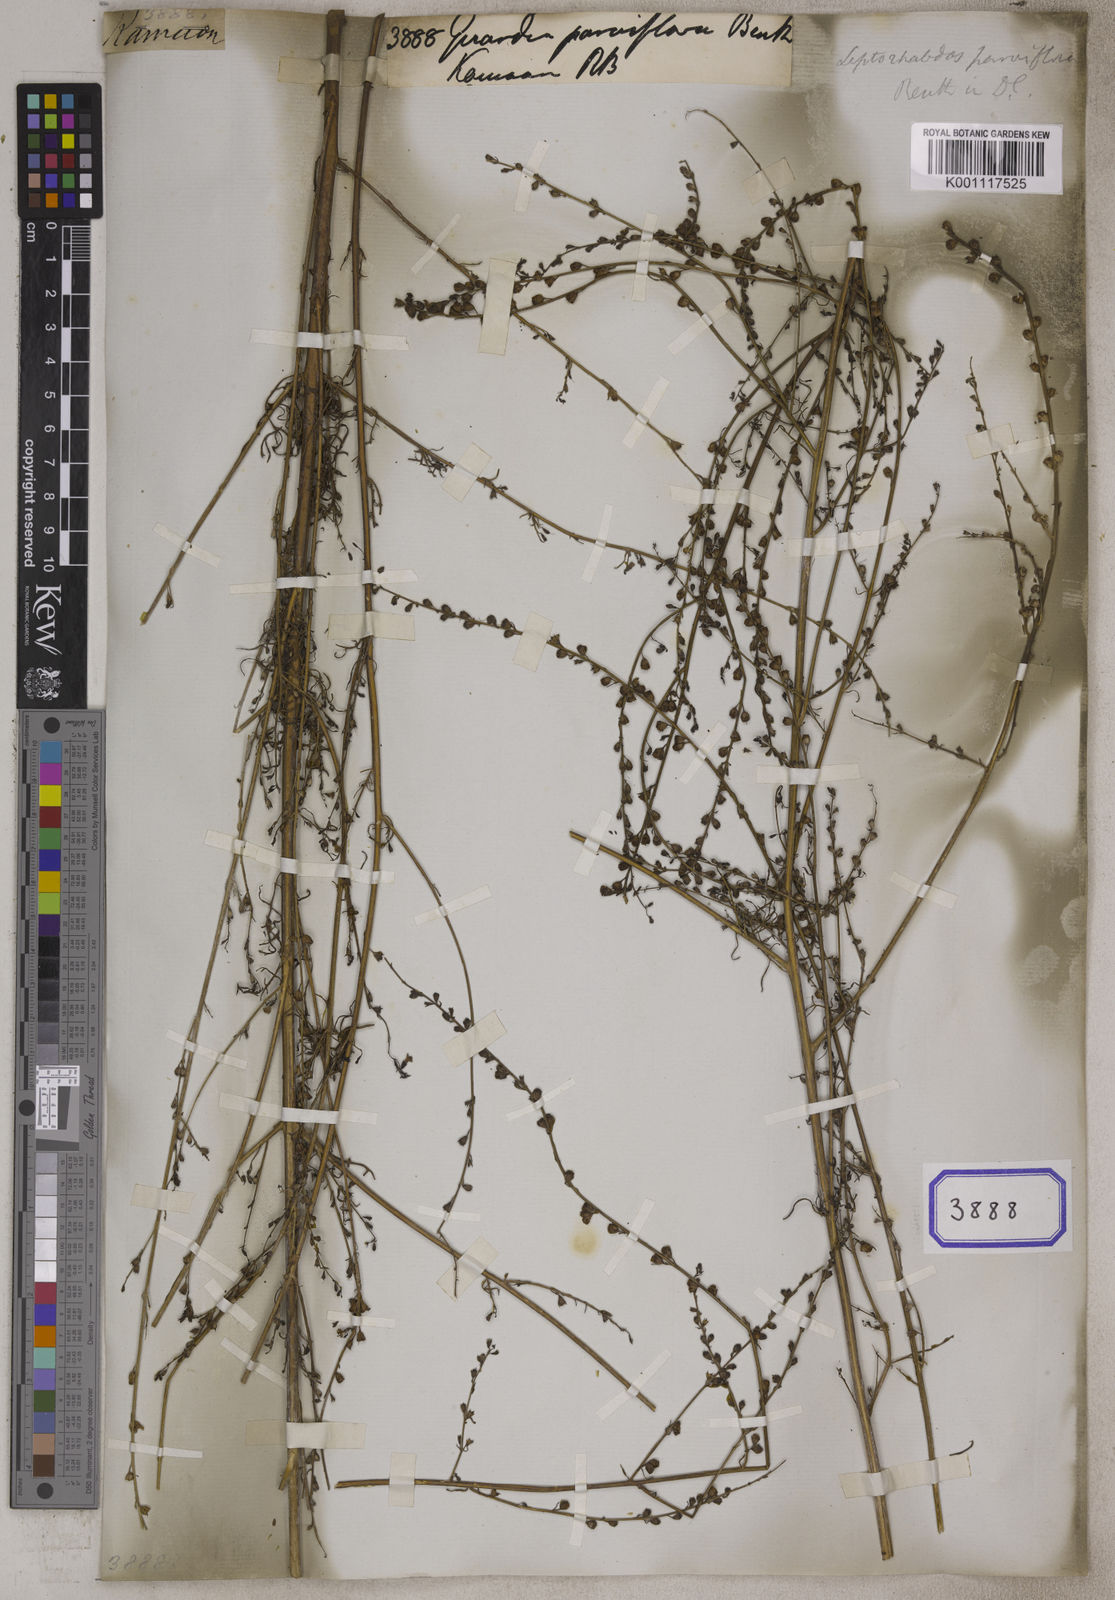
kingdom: Plantae
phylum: Tracheophyta
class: Magnoliopsida
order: Lamiales
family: Acanthaceae
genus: Stenandrium
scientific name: Stenandrium
